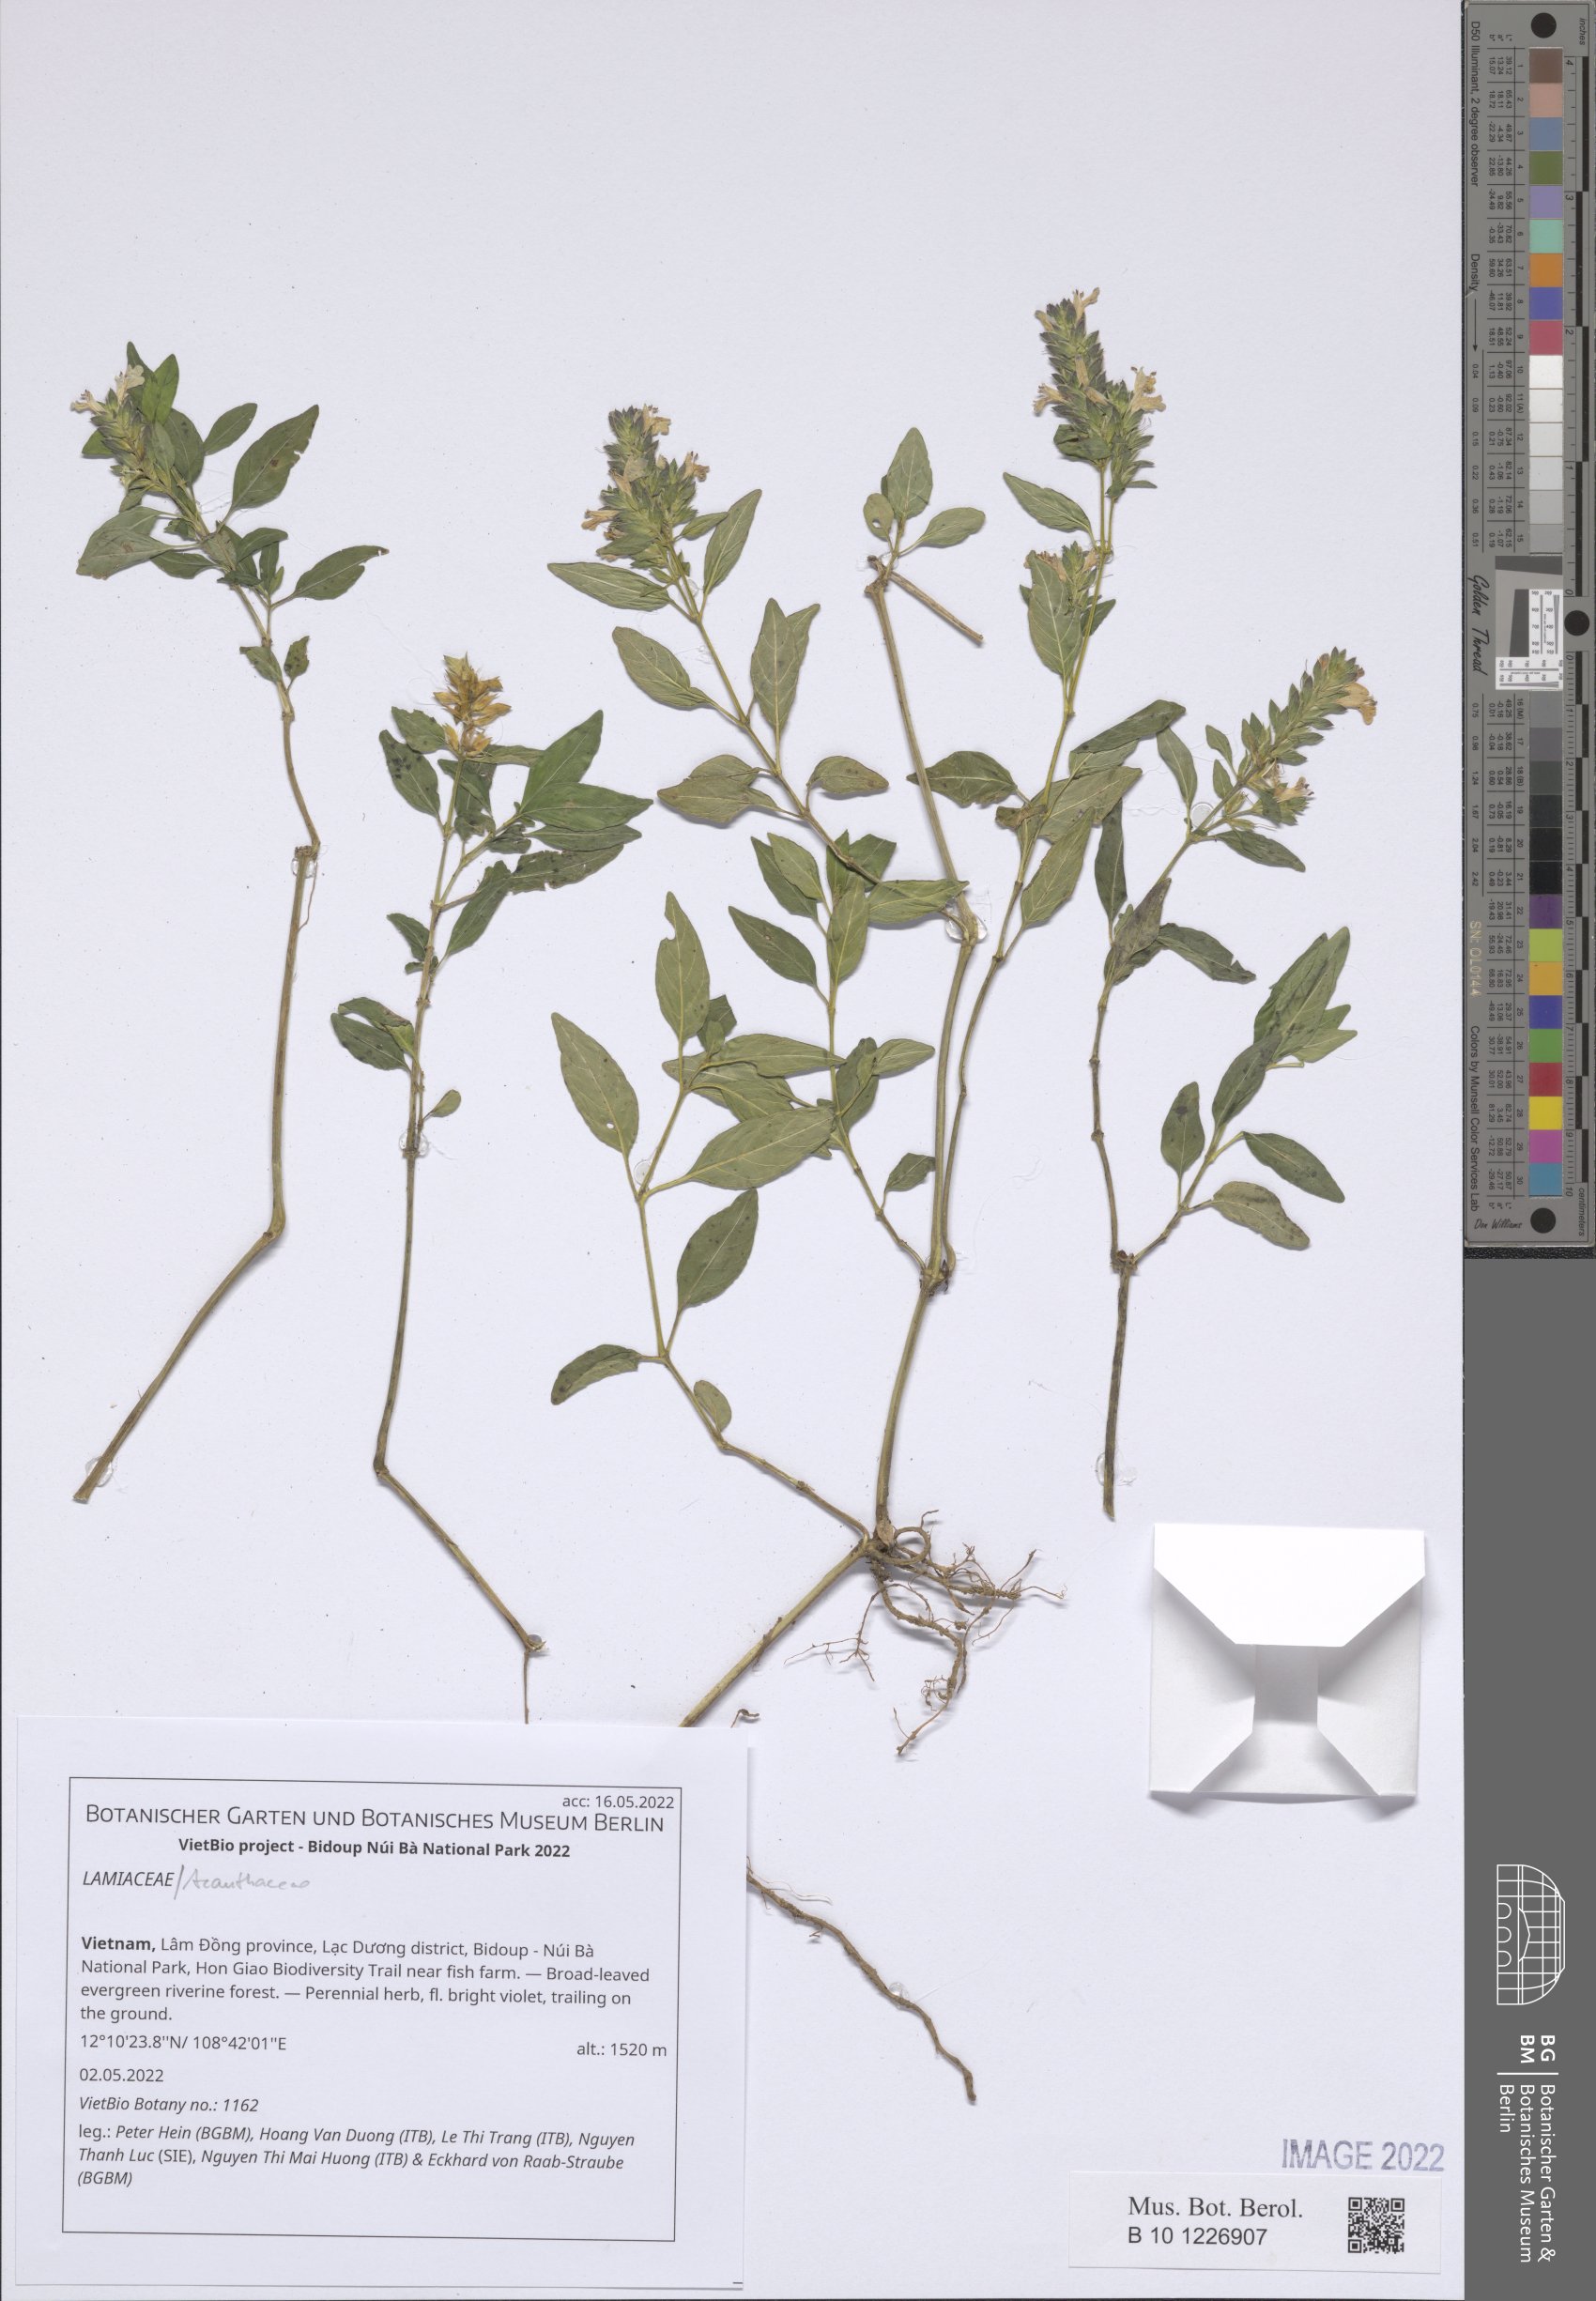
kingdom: Plantae
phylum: Tracheophyta
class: Magnoliopsida
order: Lamiales
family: Lamiaceae
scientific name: Lamiaceae
